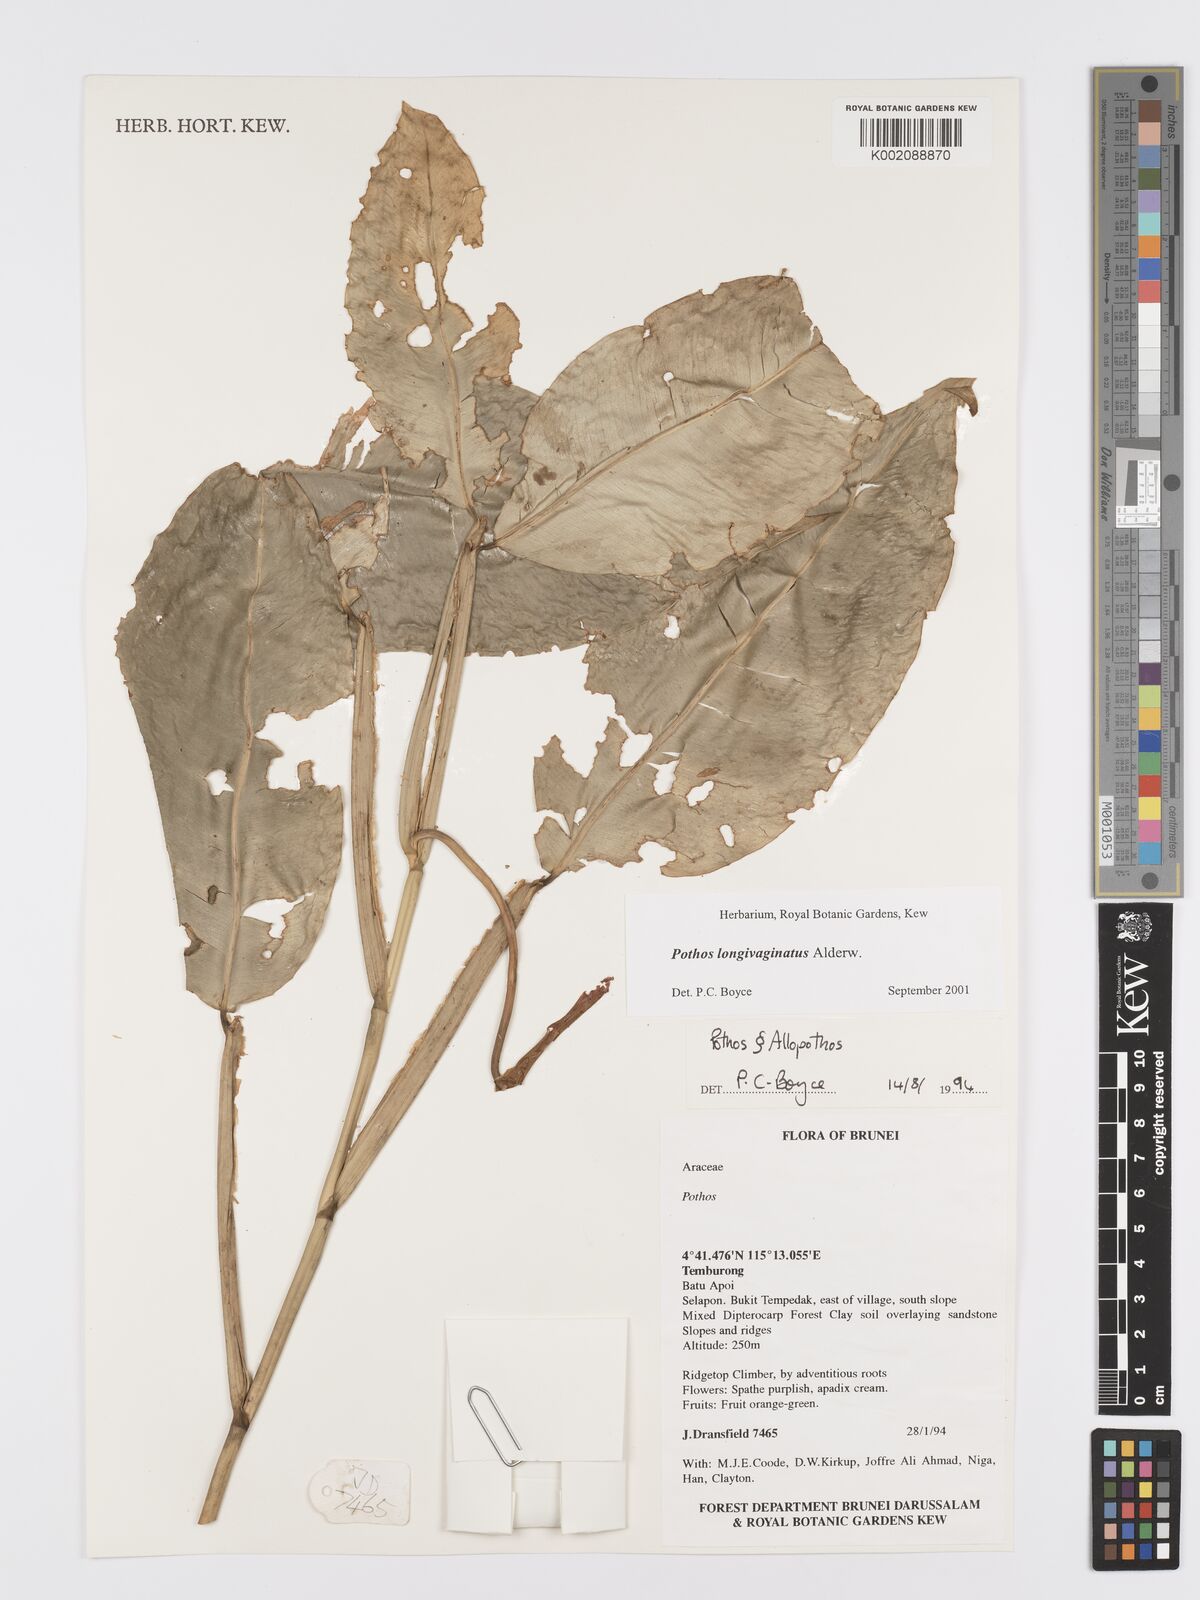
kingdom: Plantae
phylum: Tracheophyta
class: Liliopsida
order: Alismatales
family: Araceae
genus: Pothos
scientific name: Pothos longivaginatus
